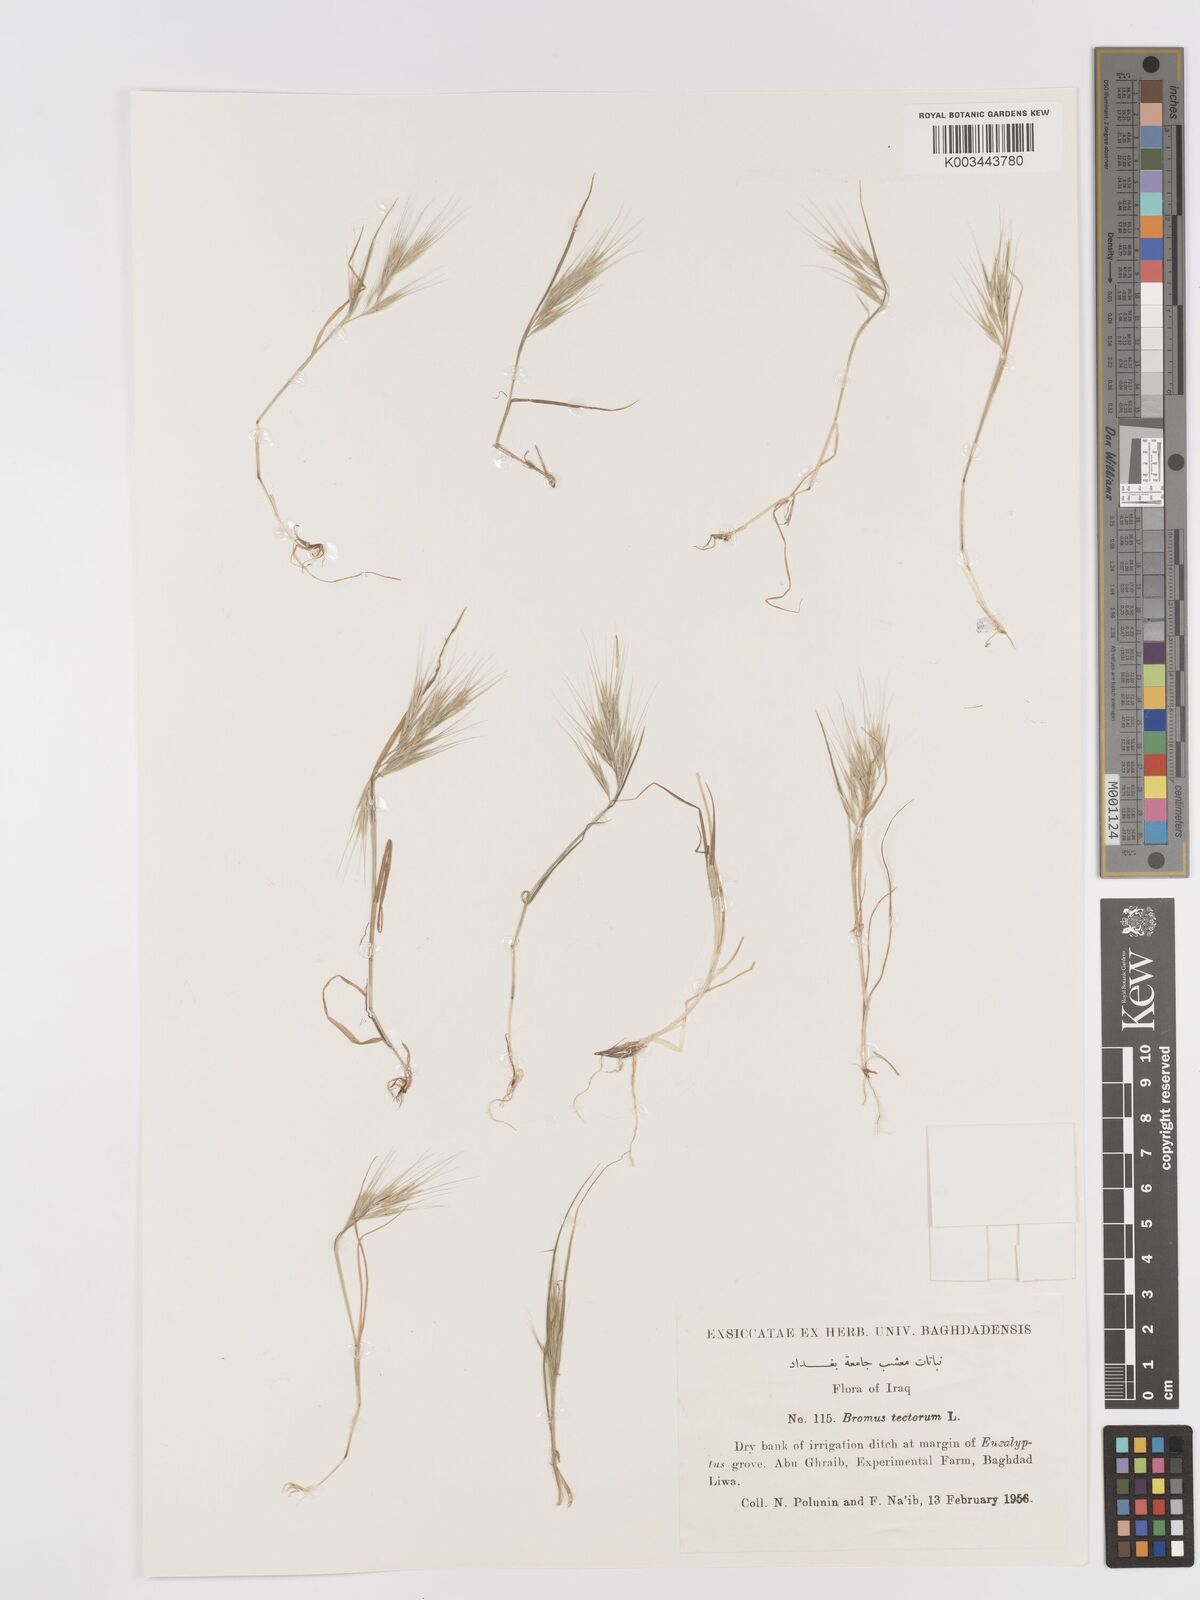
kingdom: Plantae
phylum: Tracheophyta
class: Liliopsida
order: Poales
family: Poaceae
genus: Bromus
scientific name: Bromus tectorum
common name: Cheatgrass
